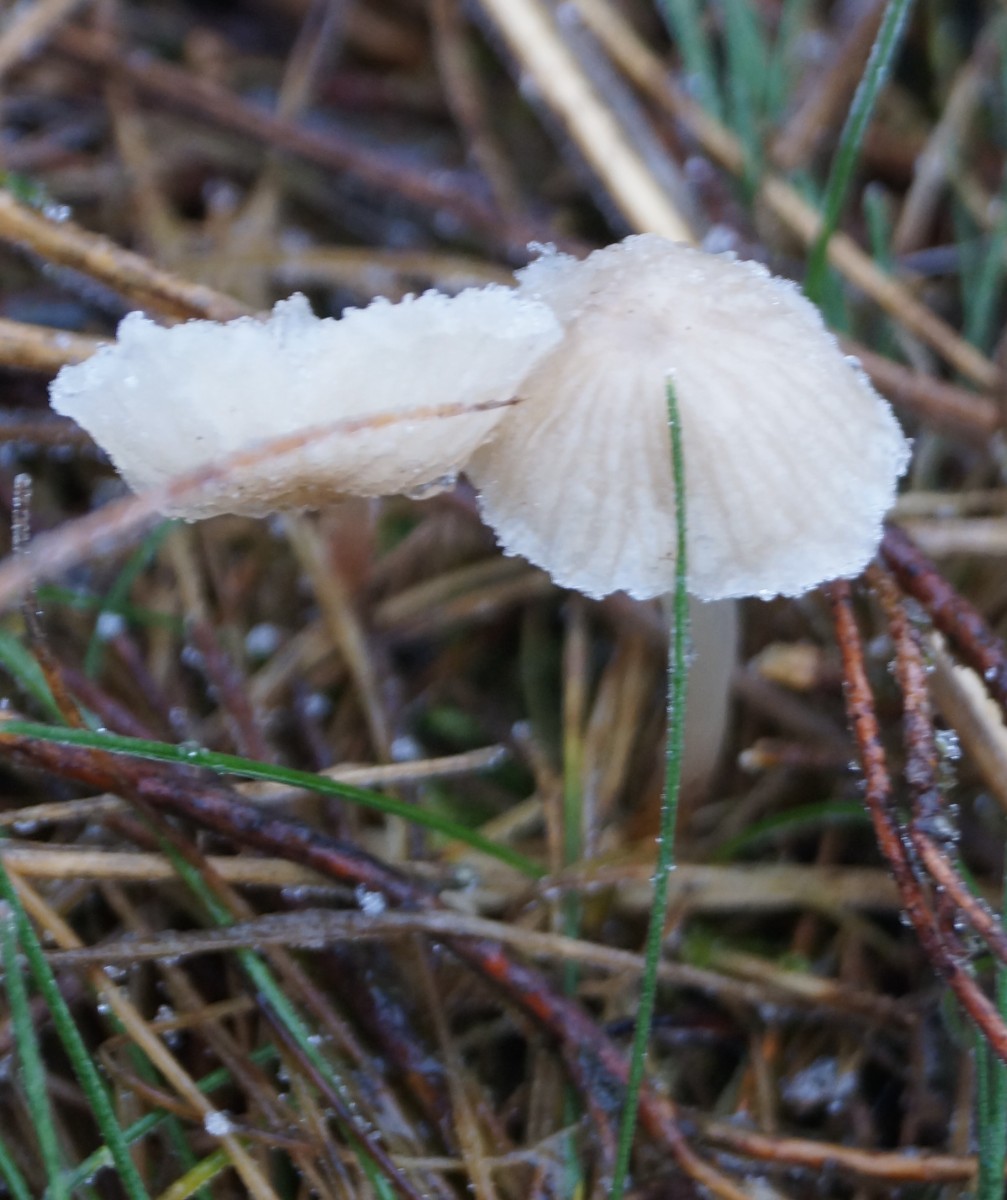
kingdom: Fungi
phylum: Basidiomycota
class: Agaricomycetes
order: Agaricales
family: Mycenaceae
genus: Mycena
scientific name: Mycena
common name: huesvamp
